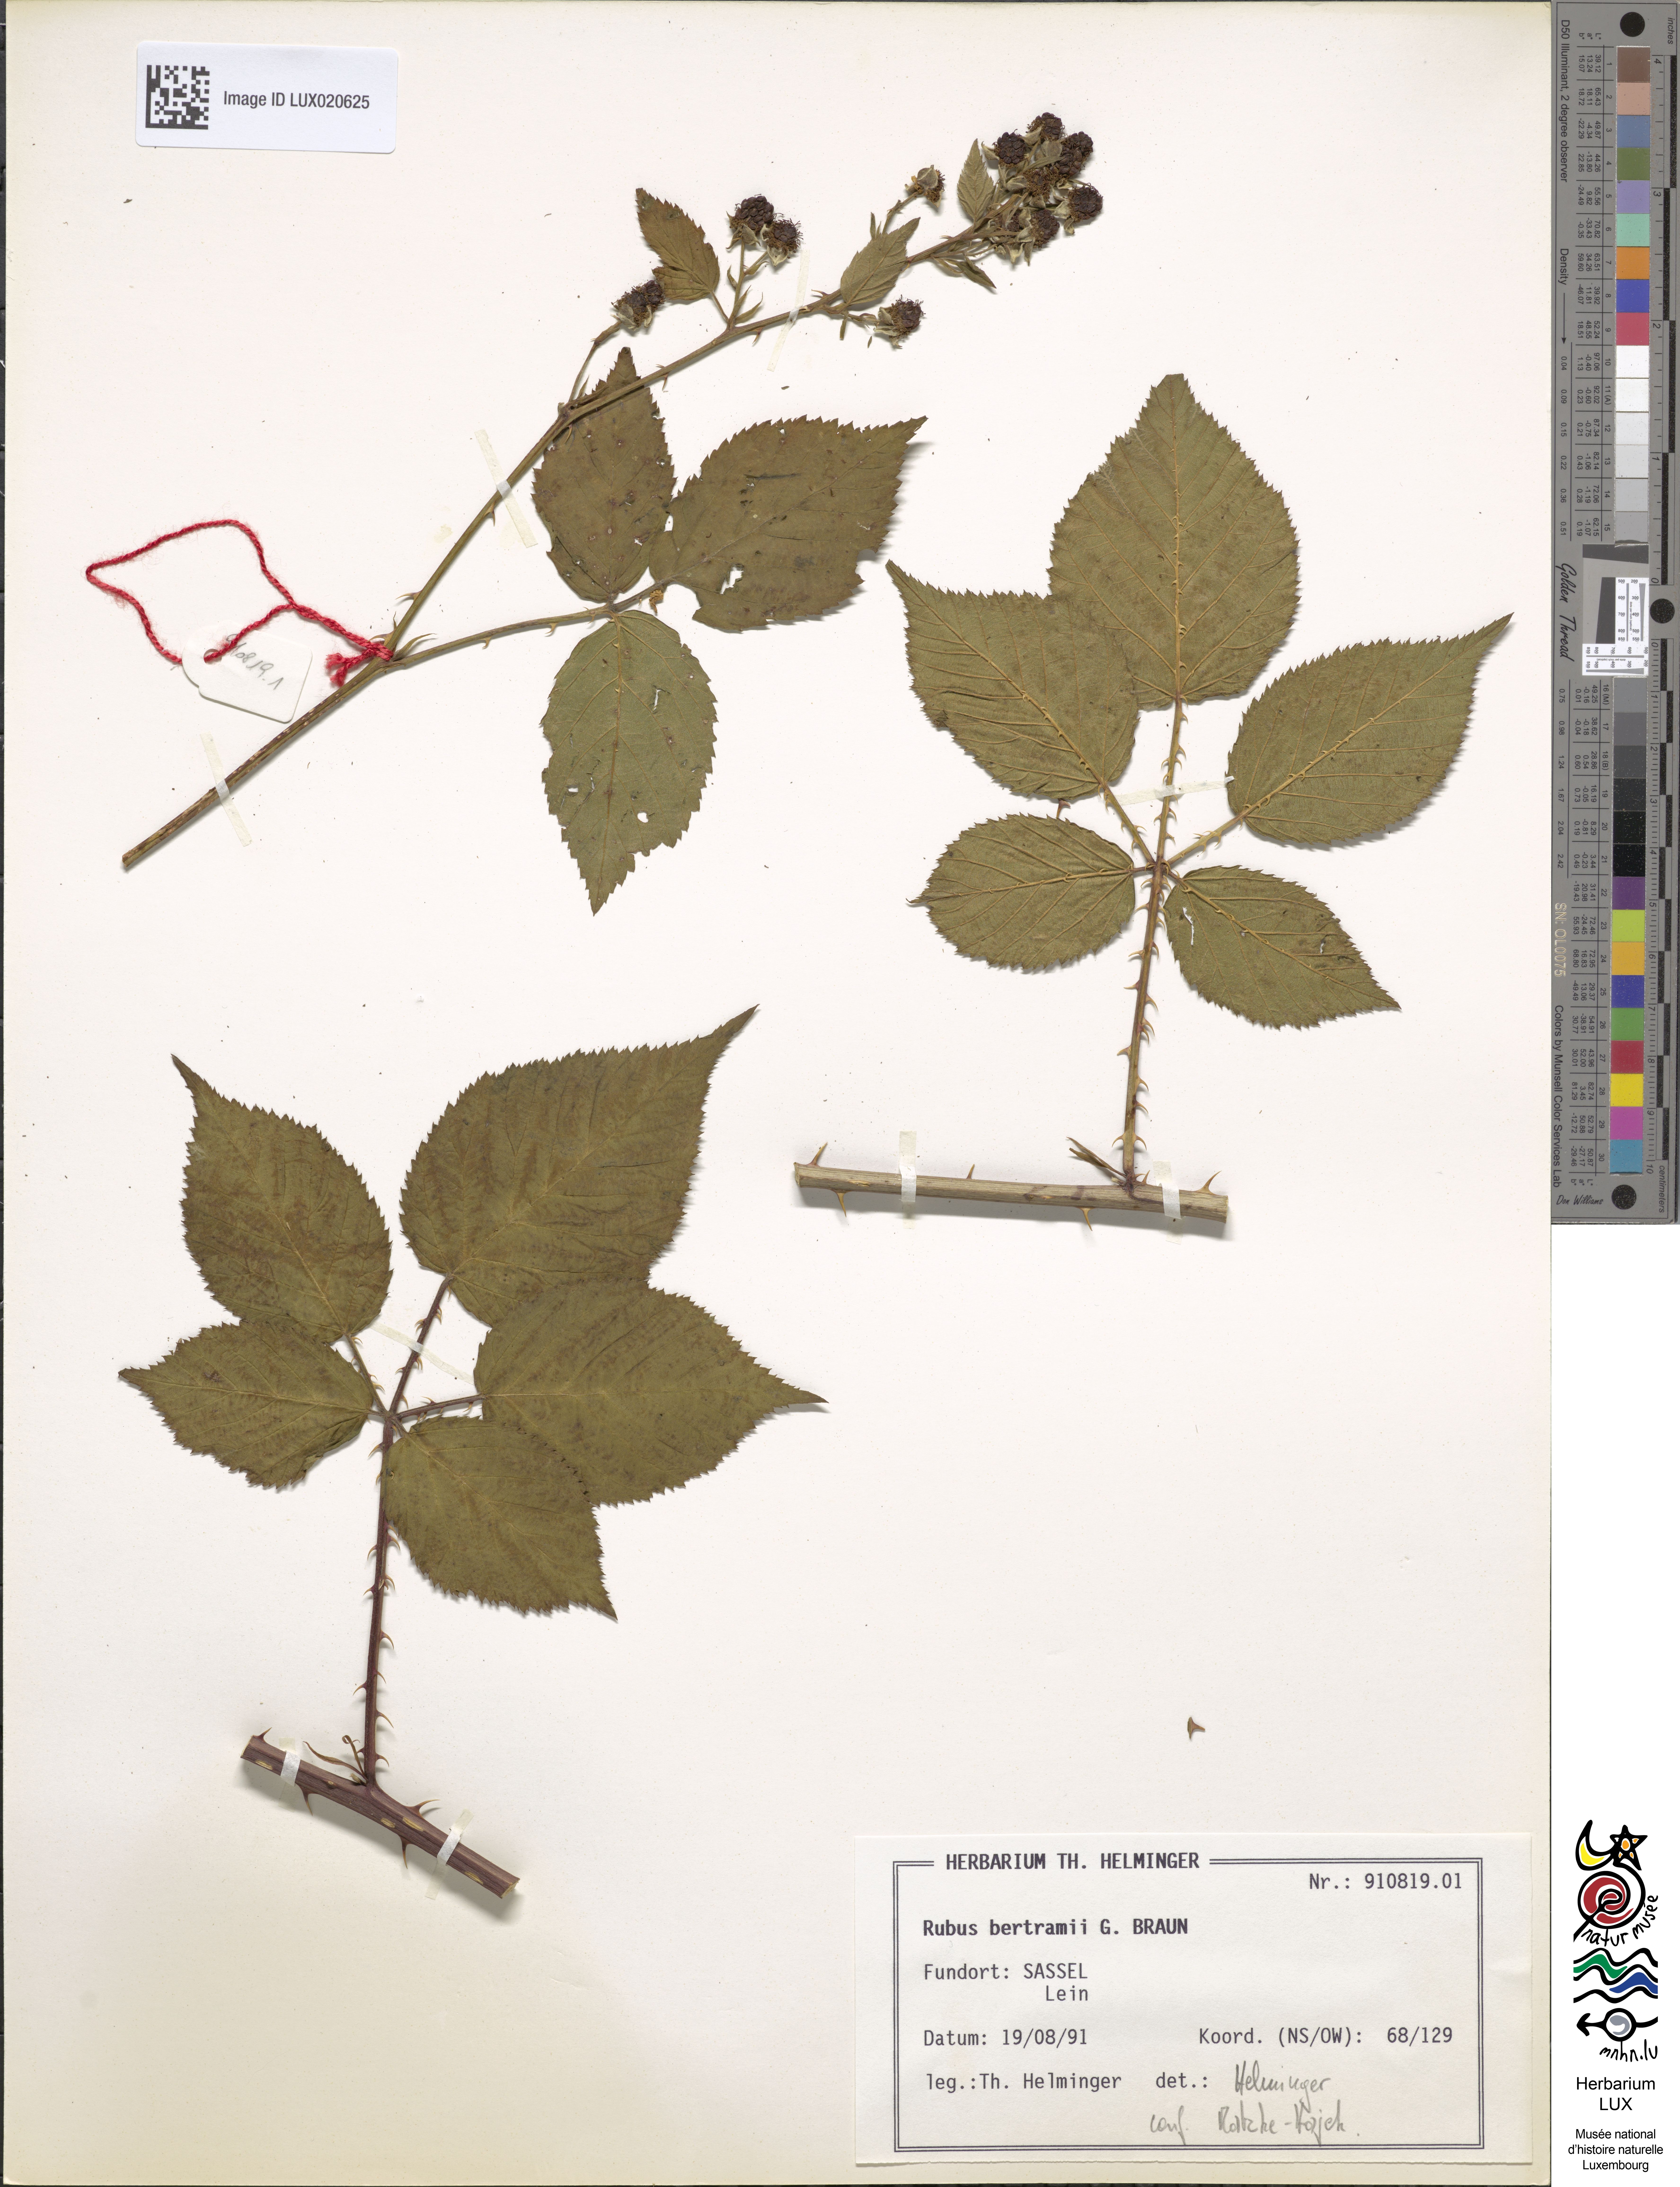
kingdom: Plantae
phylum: Tracheophyta
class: Magnoliopsida
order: Rosales
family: Rosaceae
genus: Rubus
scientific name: Rubus bertramii
